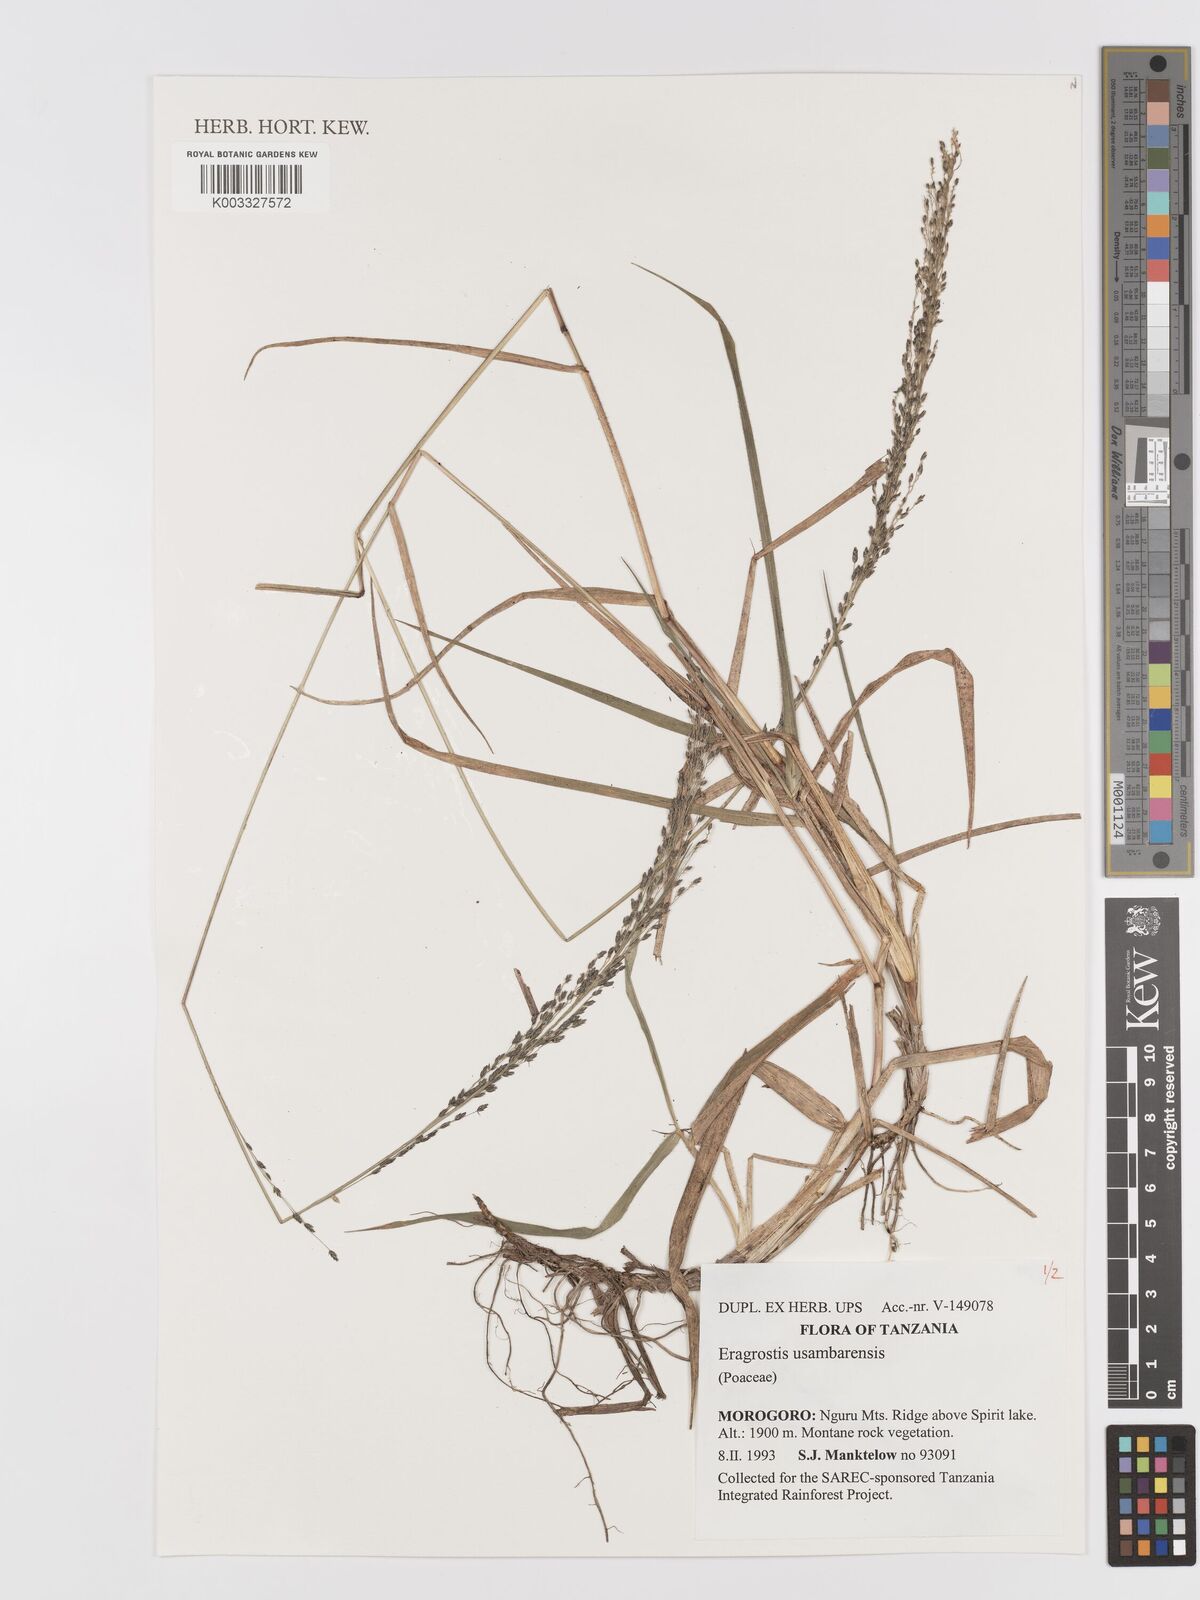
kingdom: Plantae
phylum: Tracheophyta
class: Liliopsida
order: Poales
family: Poaceae
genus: Eragrostis
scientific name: Eragrostis usambarensis
